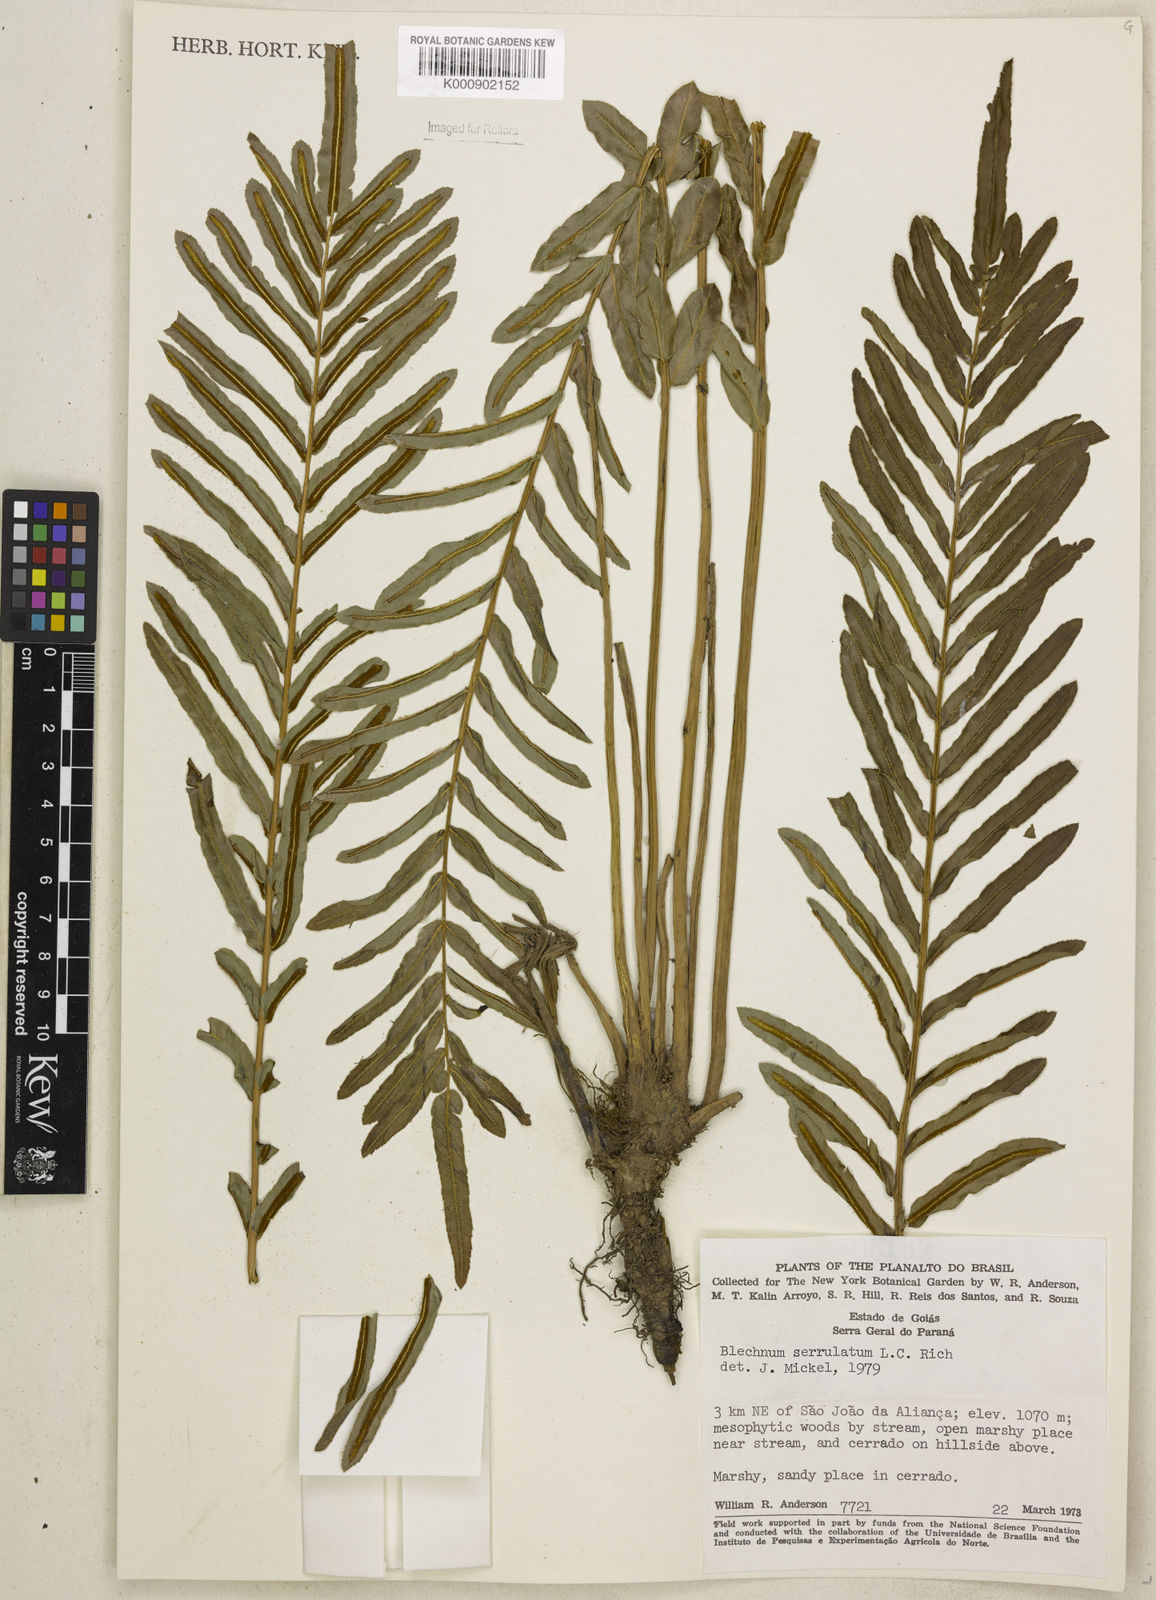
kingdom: Plantae
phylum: Tracheophyta
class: Polypodiopsida
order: Polypodiales
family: Blechnaceae
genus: Telmatoblechnum
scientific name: Telmatoblechnum serrulatum
